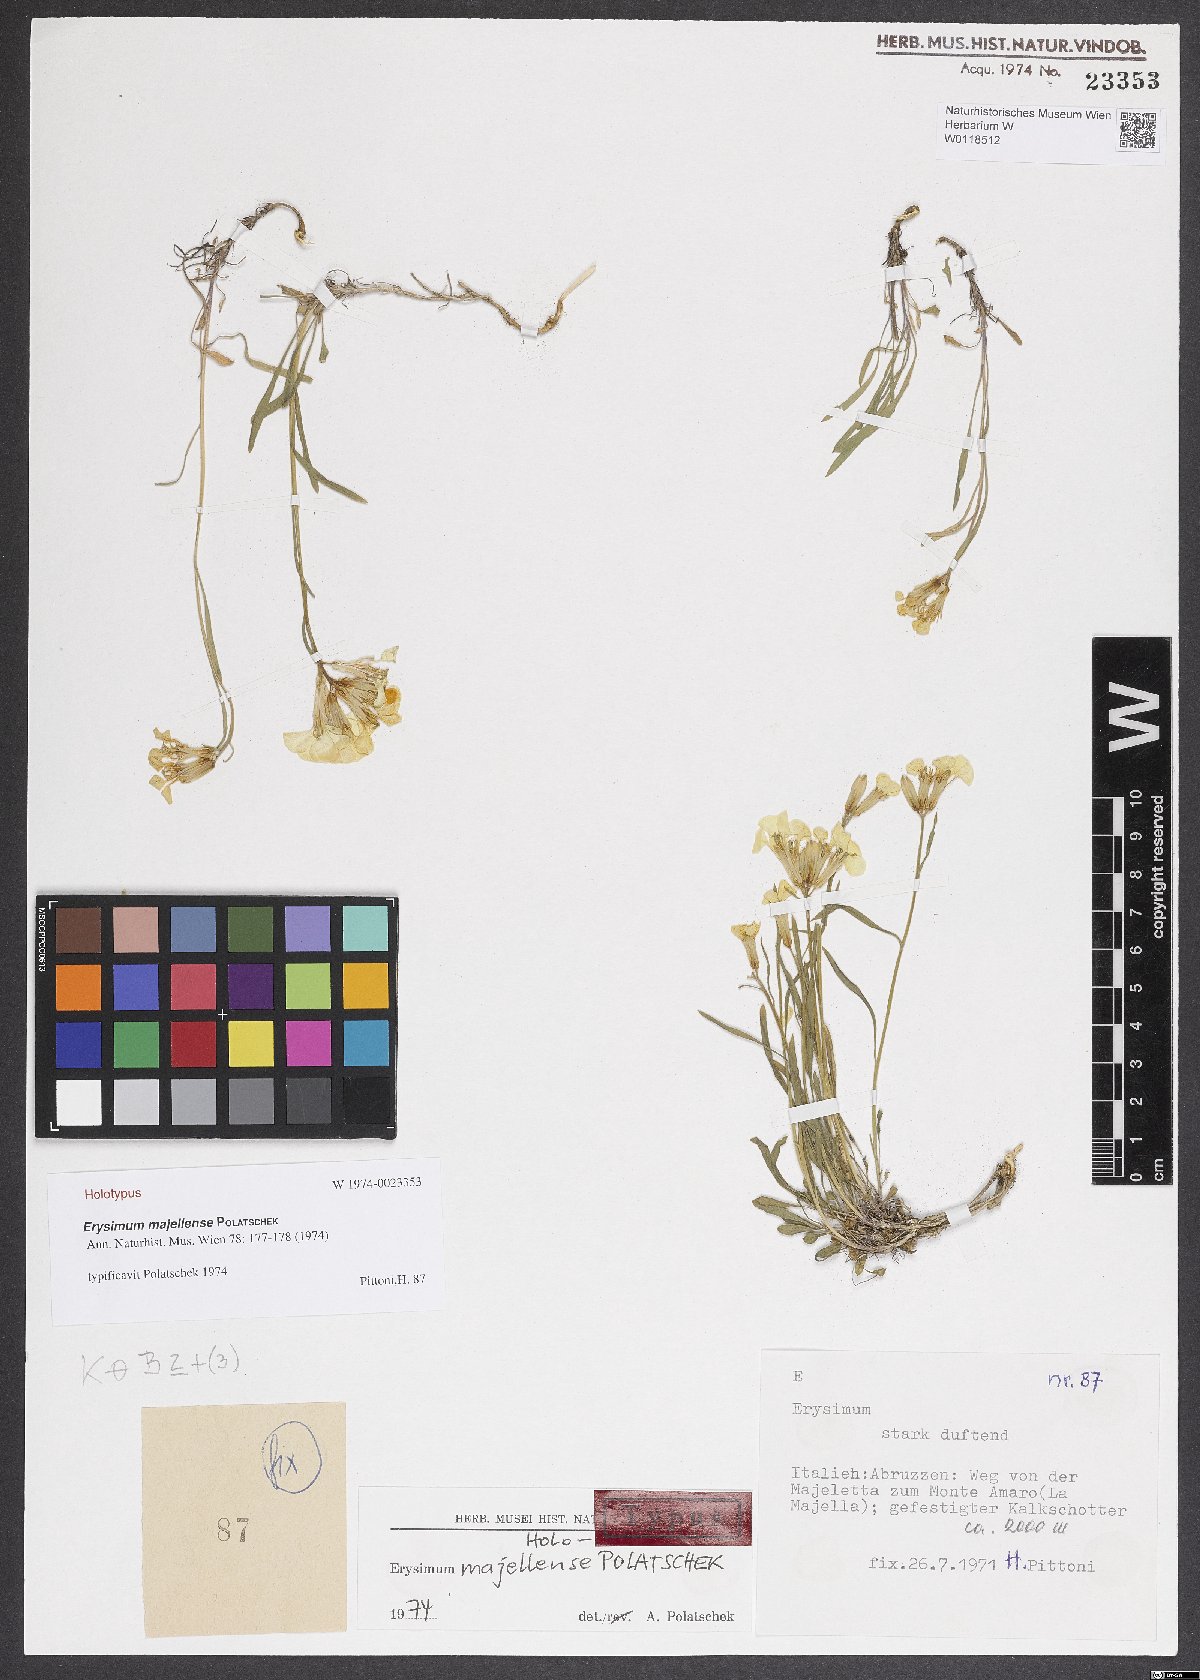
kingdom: Plantae
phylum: Tracheophyta
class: Magnoliopsida
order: Brassicales
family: Brassicaceae
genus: Erysimum
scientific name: Erysimum majellense
